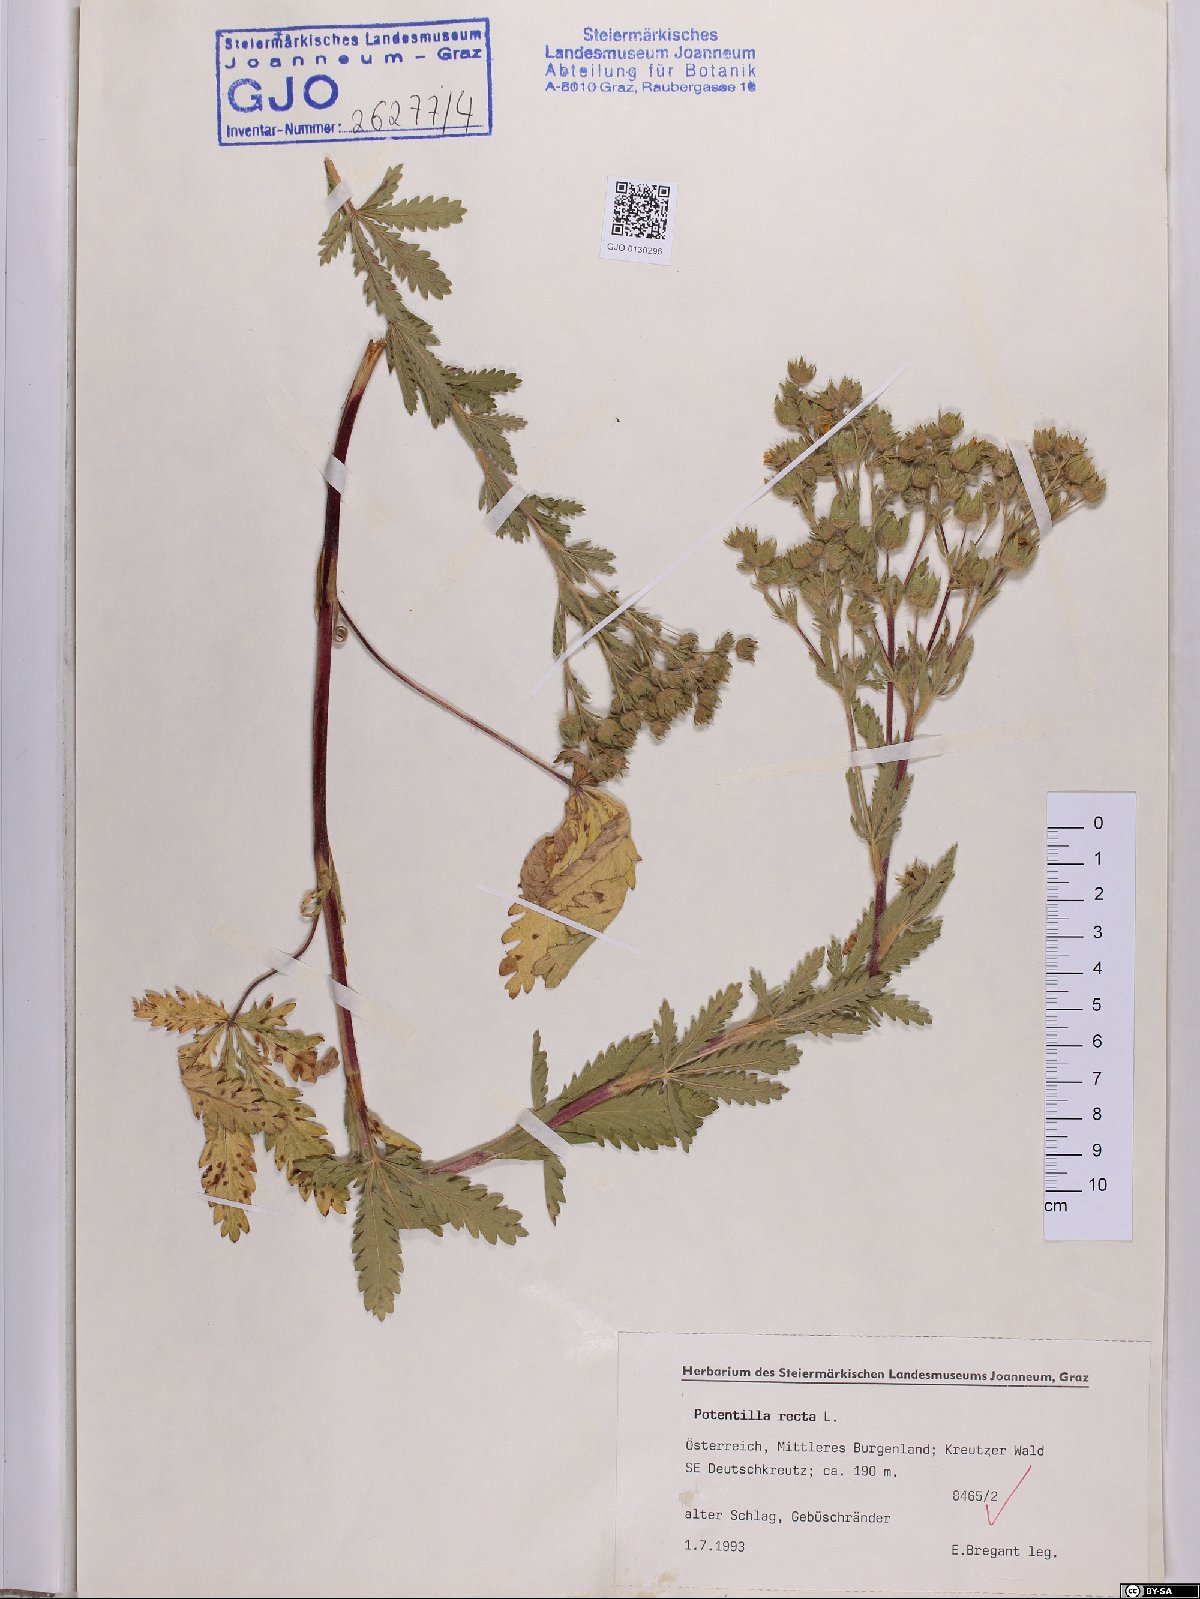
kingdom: Plantae
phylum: Tracheophyta
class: Magnoliopsida
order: Rosales
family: Rosaceae
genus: Potentilla
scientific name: Potentilla recta
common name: Sulphur cinquefoil
